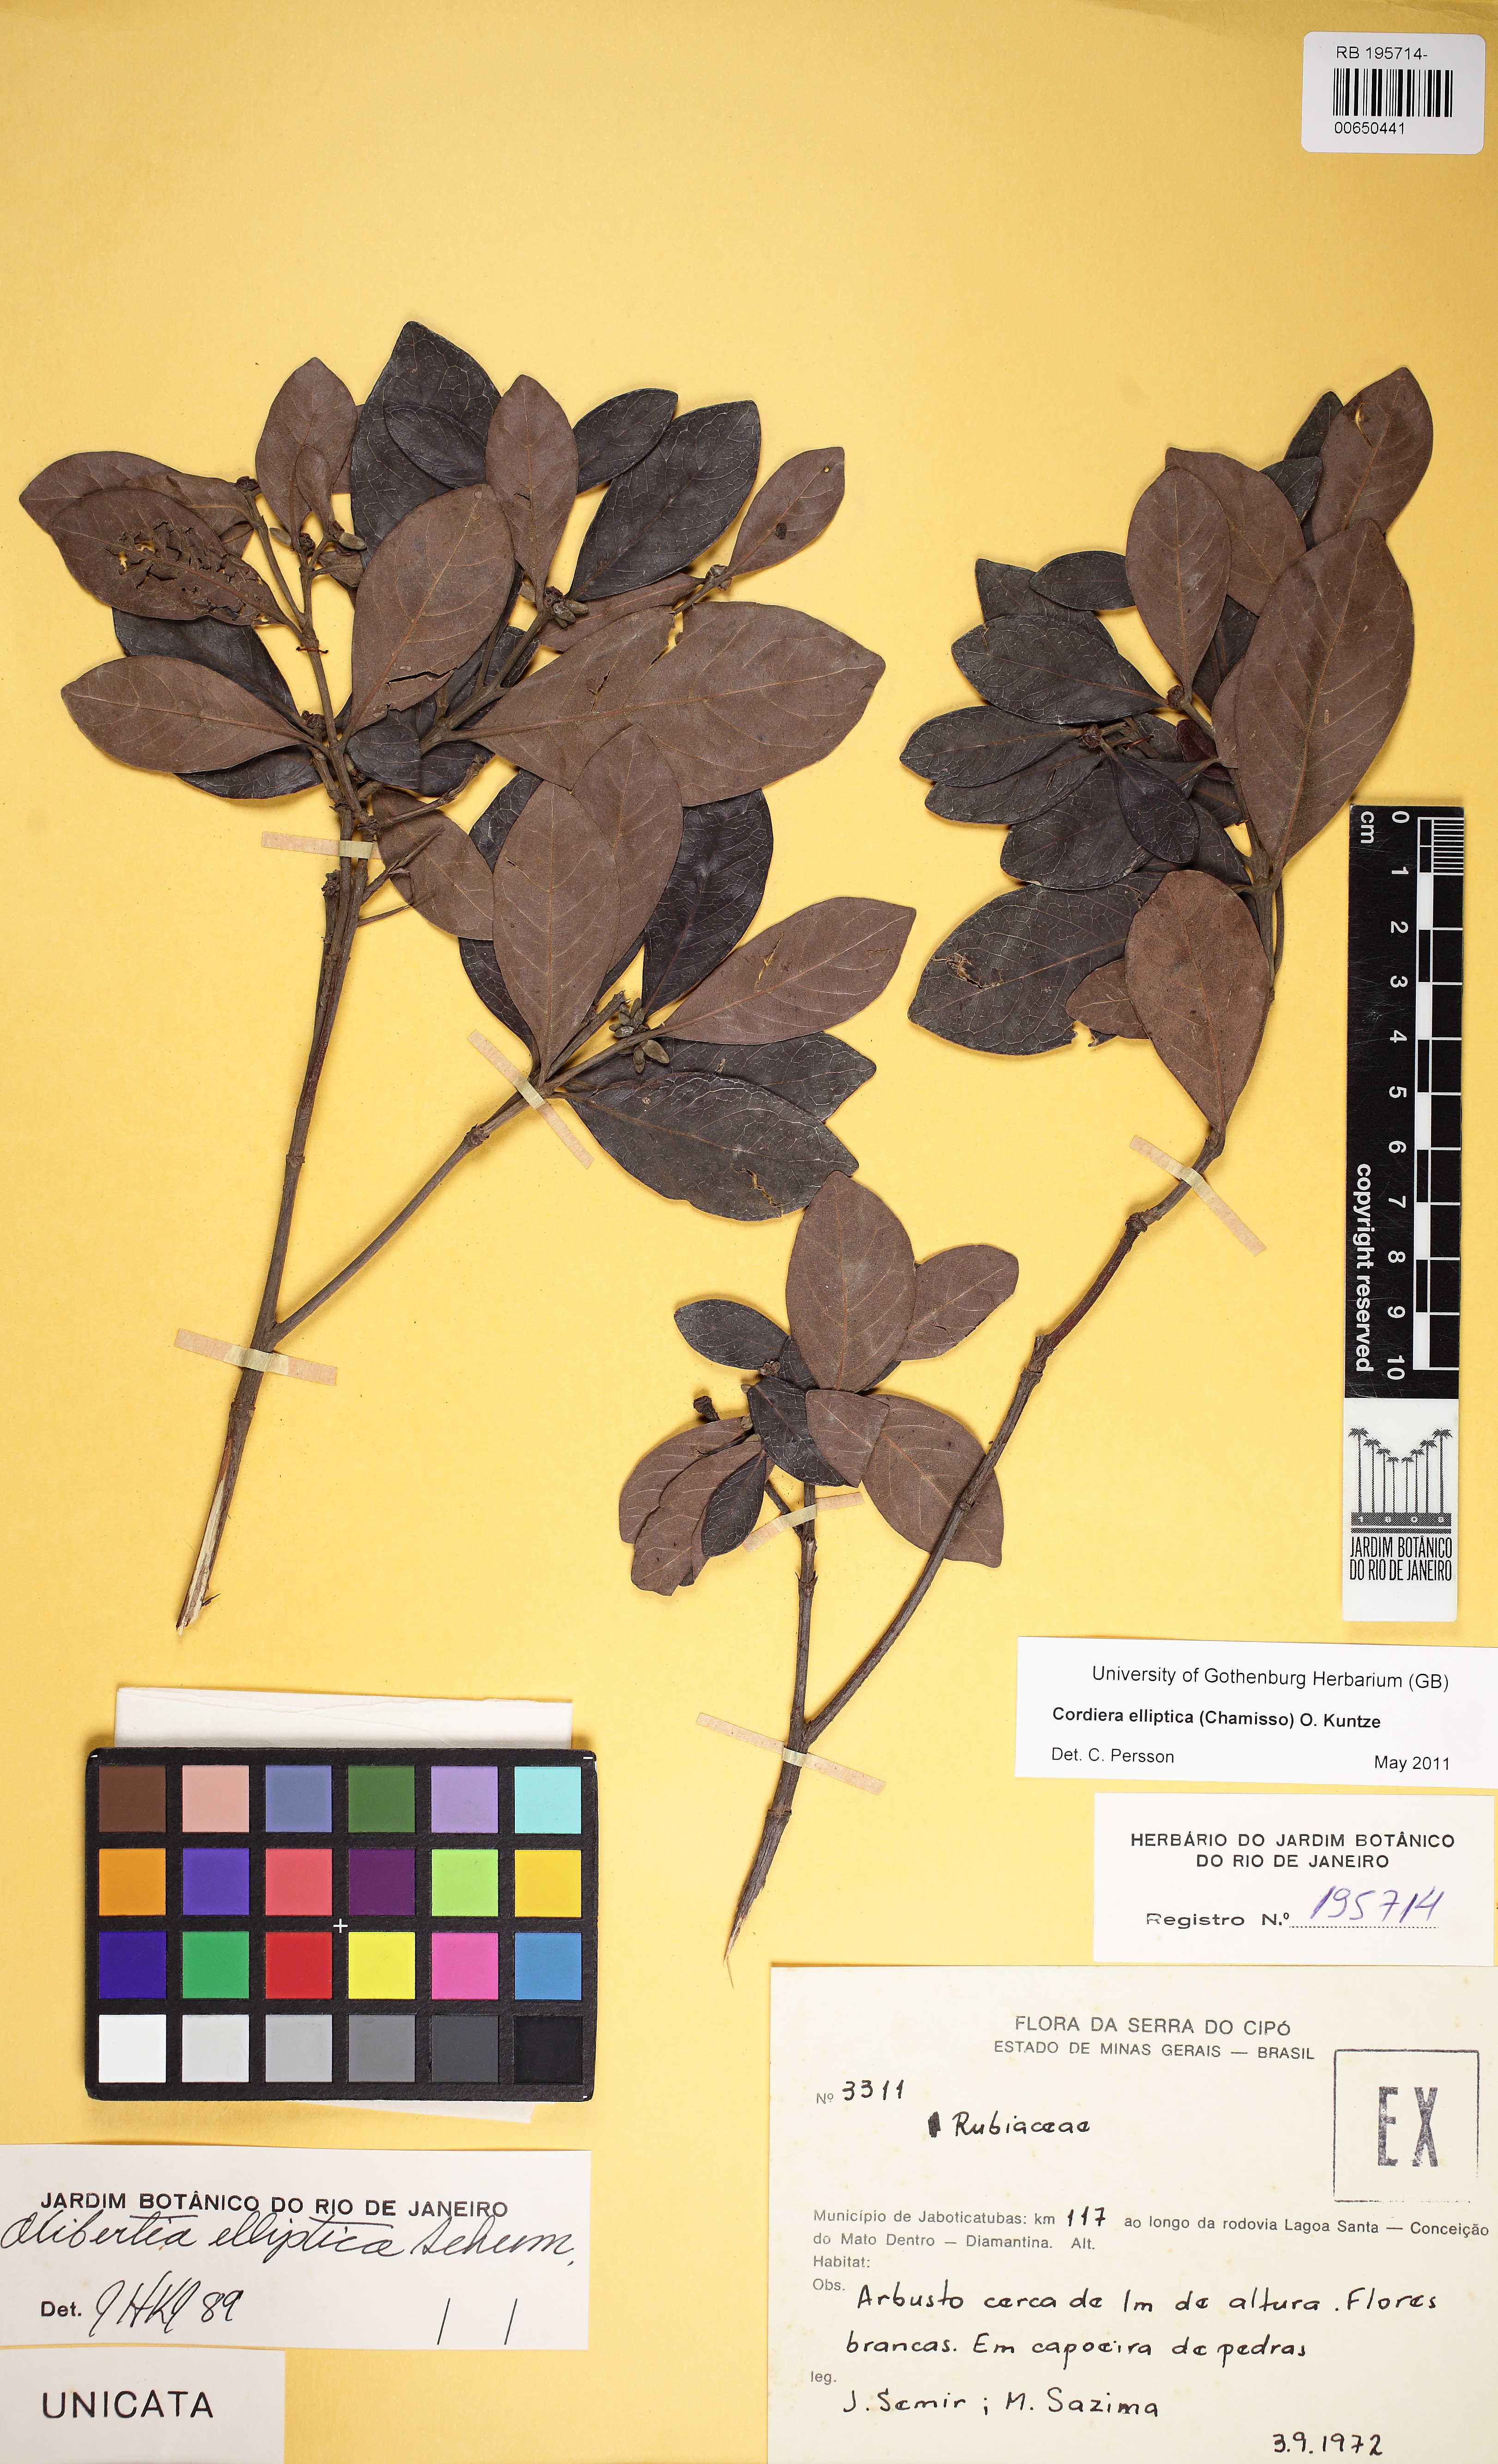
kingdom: Plantae
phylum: Tracheophyta
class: Magnoliopsida
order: Gentianales
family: Rubiaceae
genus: Cordiera
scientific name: Cordiera elliptica
